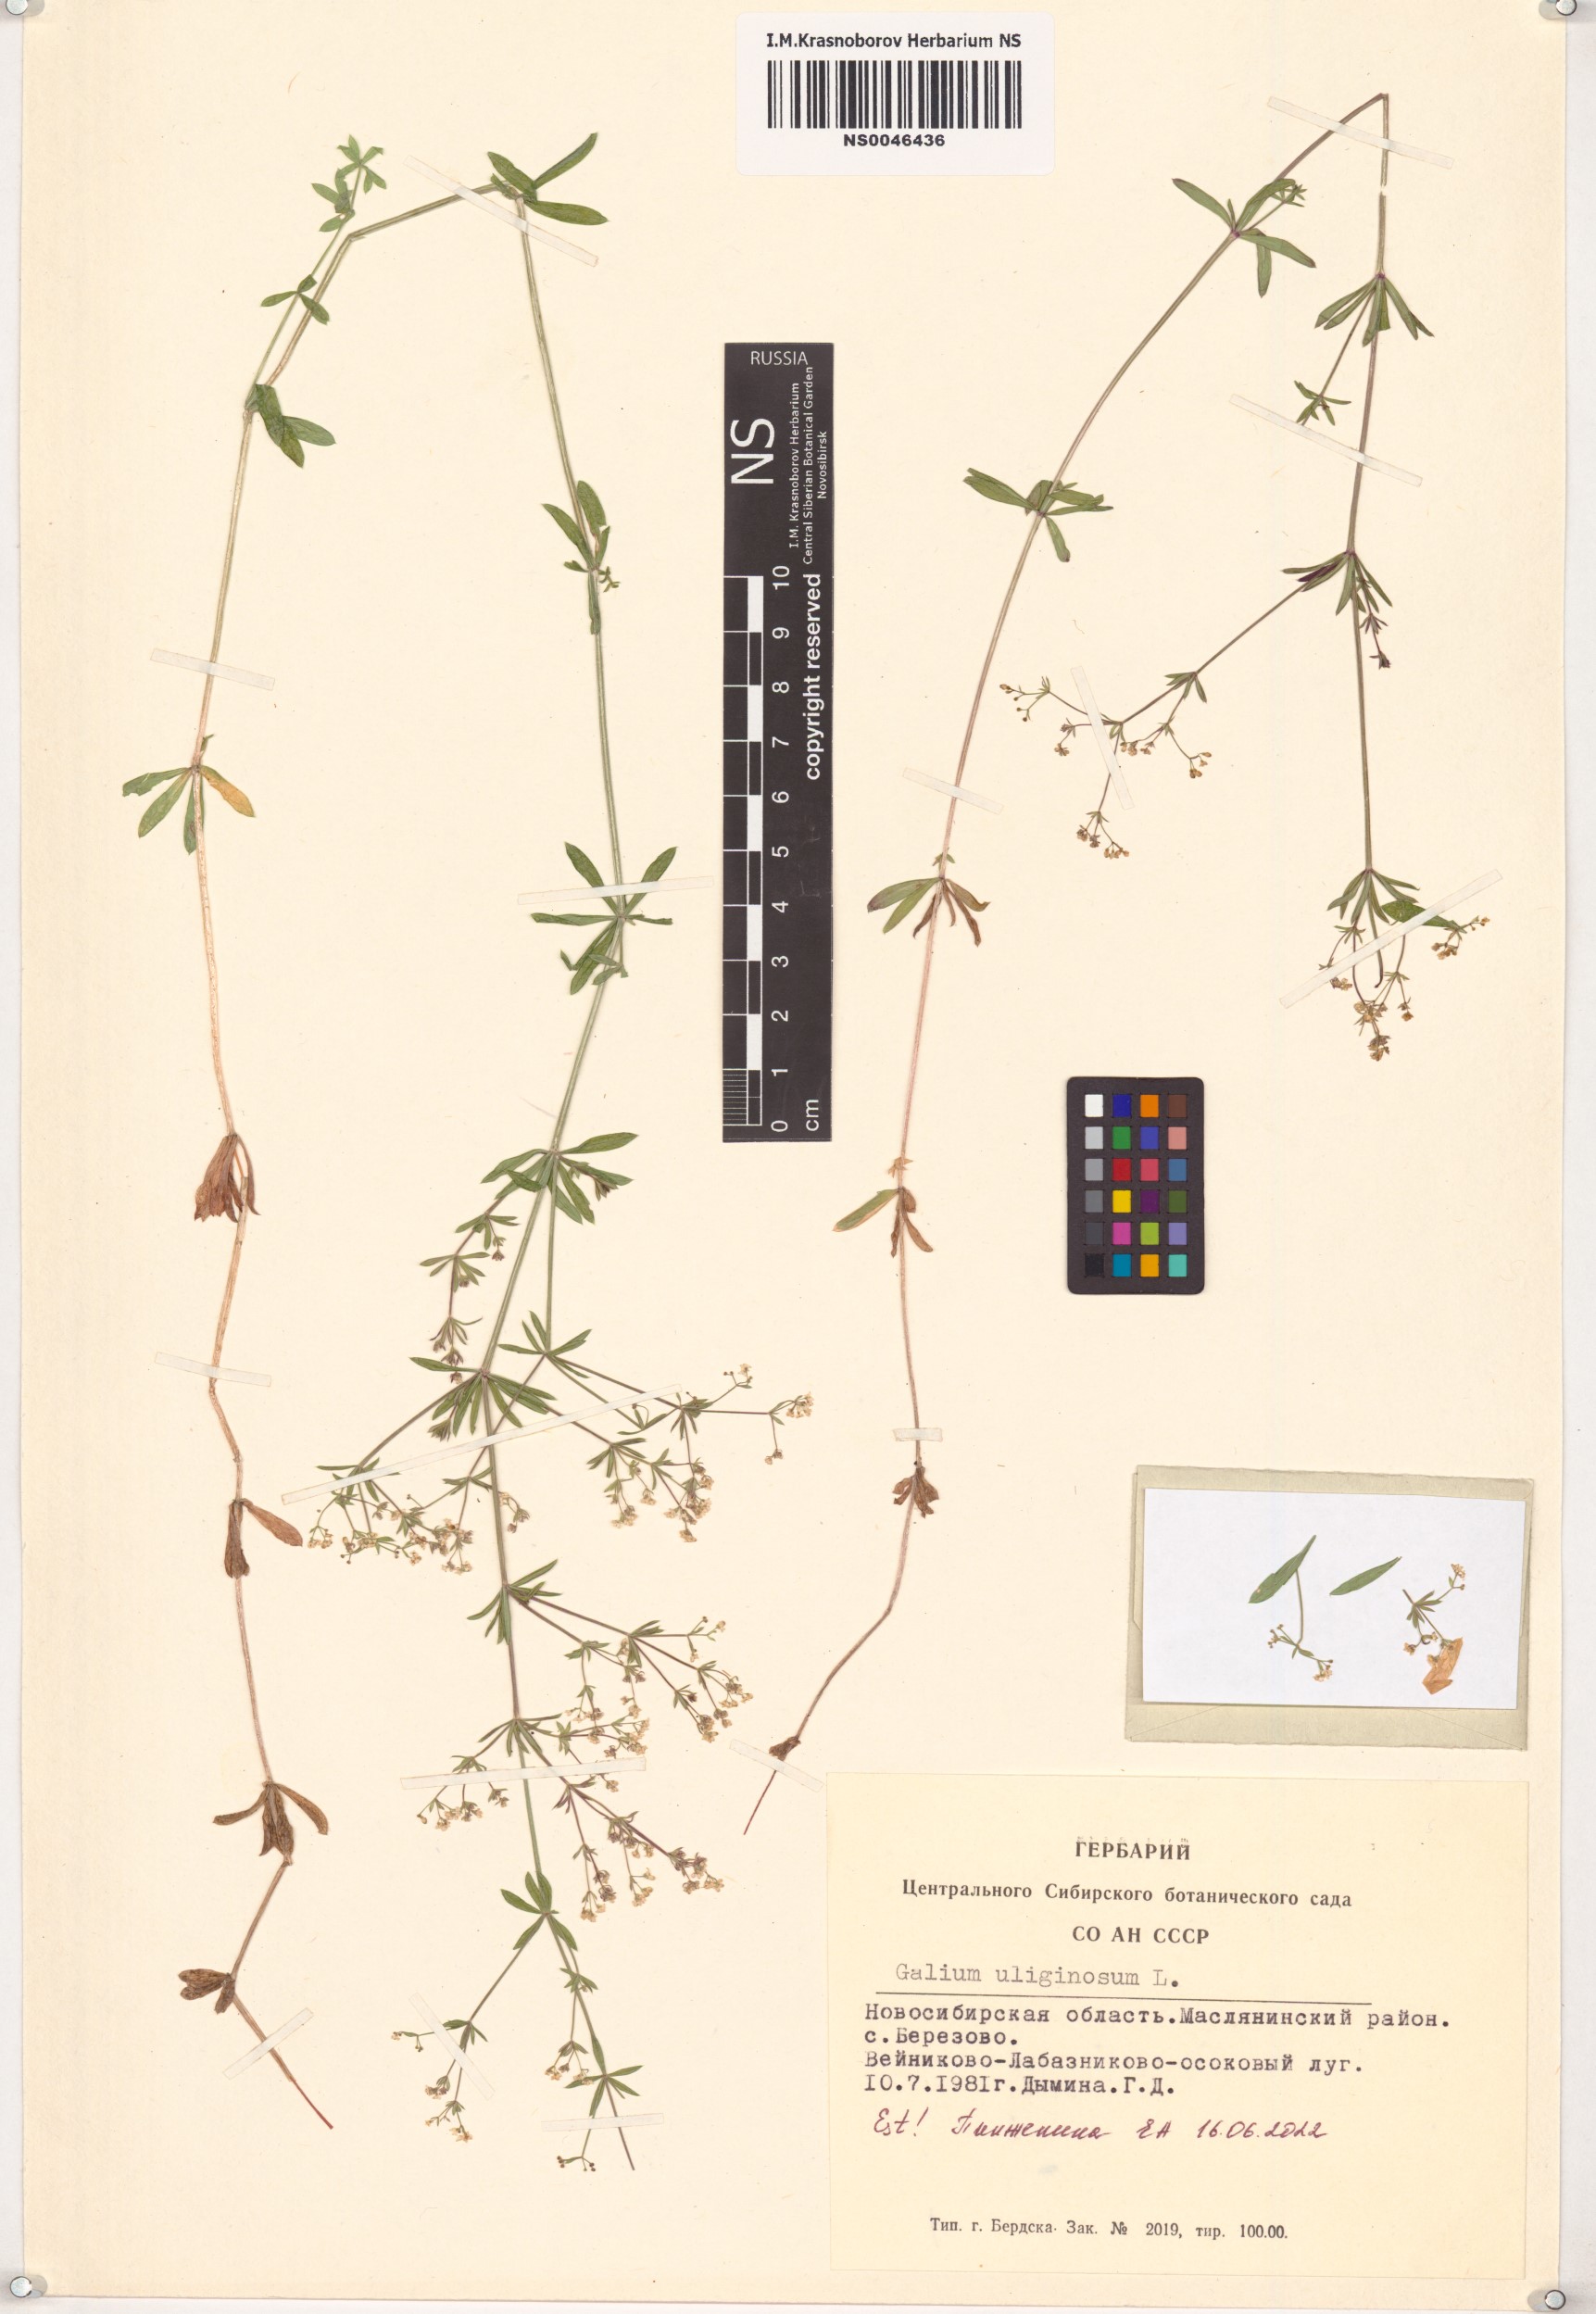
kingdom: Plantae
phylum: Tracheophyta
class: Magnoliopsida
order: Gentianales
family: Rubiaceae
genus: Galium
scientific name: Galium uliginosum
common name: Fen bedstraw
